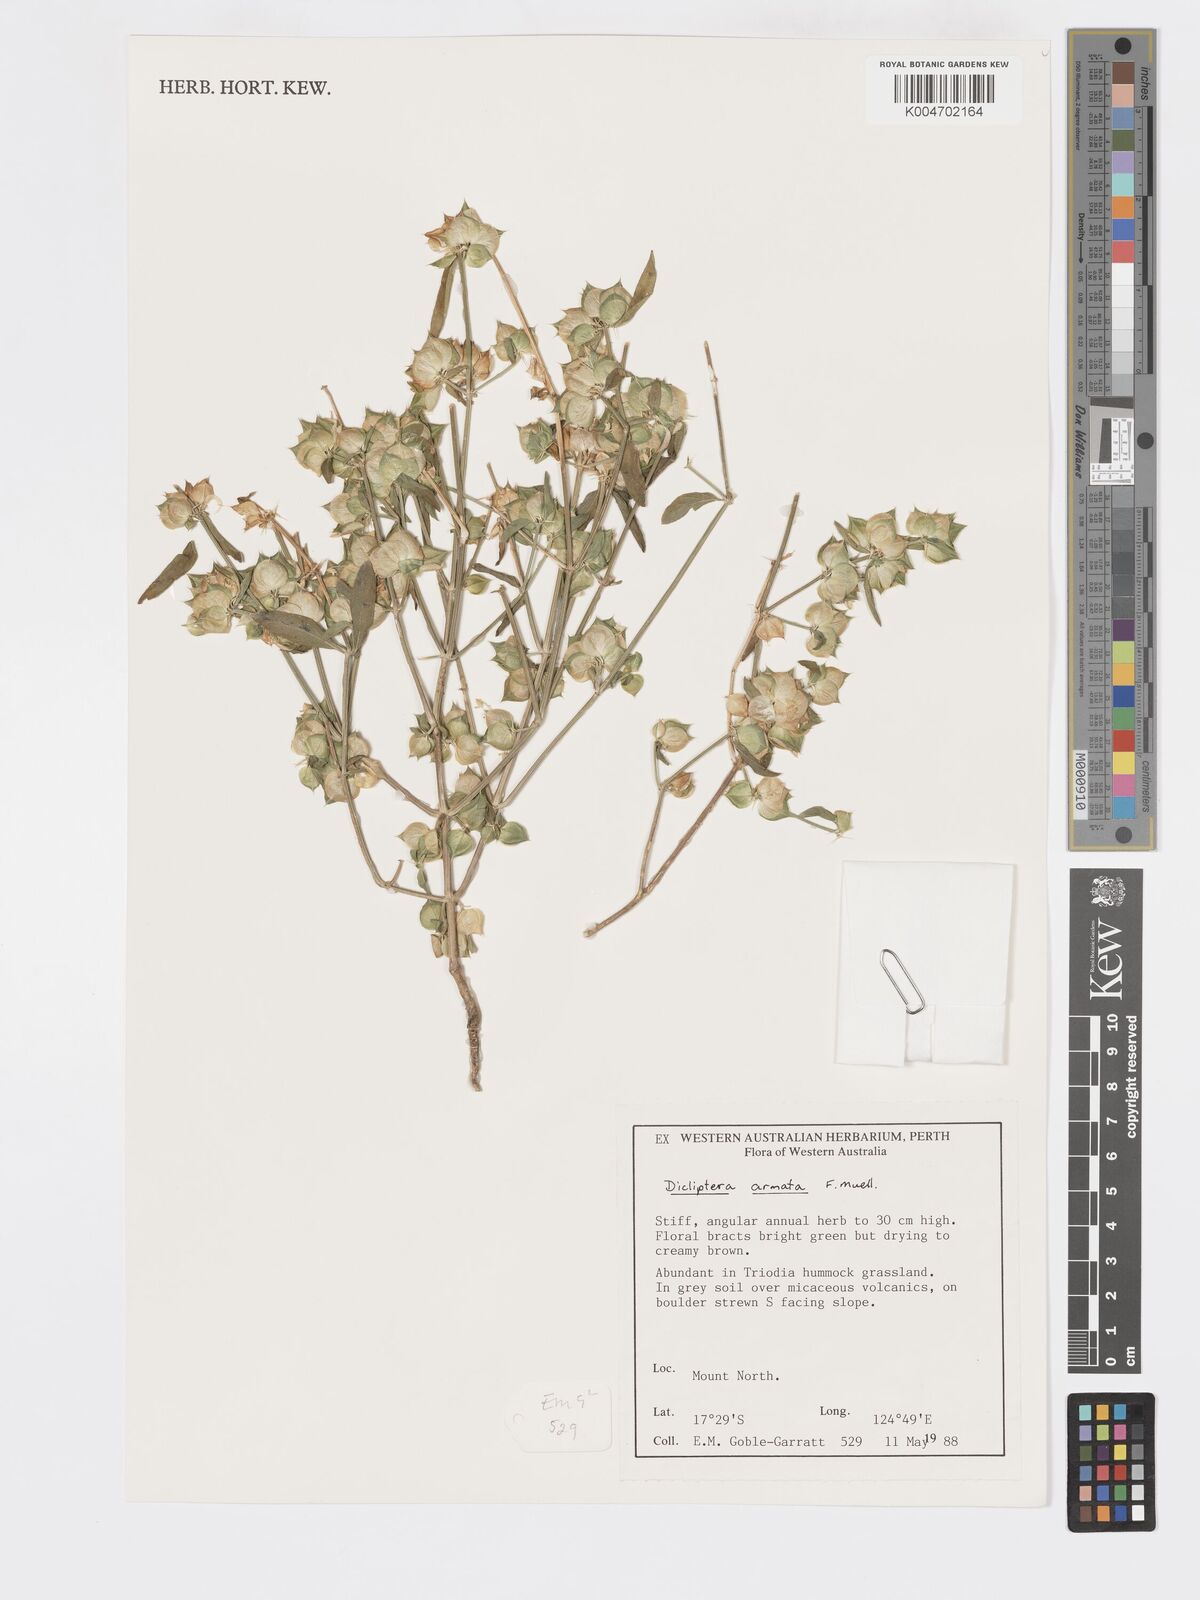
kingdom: Plantae
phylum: Tracheophyta
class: Magnoliopsida
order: Lamiales
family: Acanthaceae
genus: Dicliptera
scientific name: Dicliptera armata
